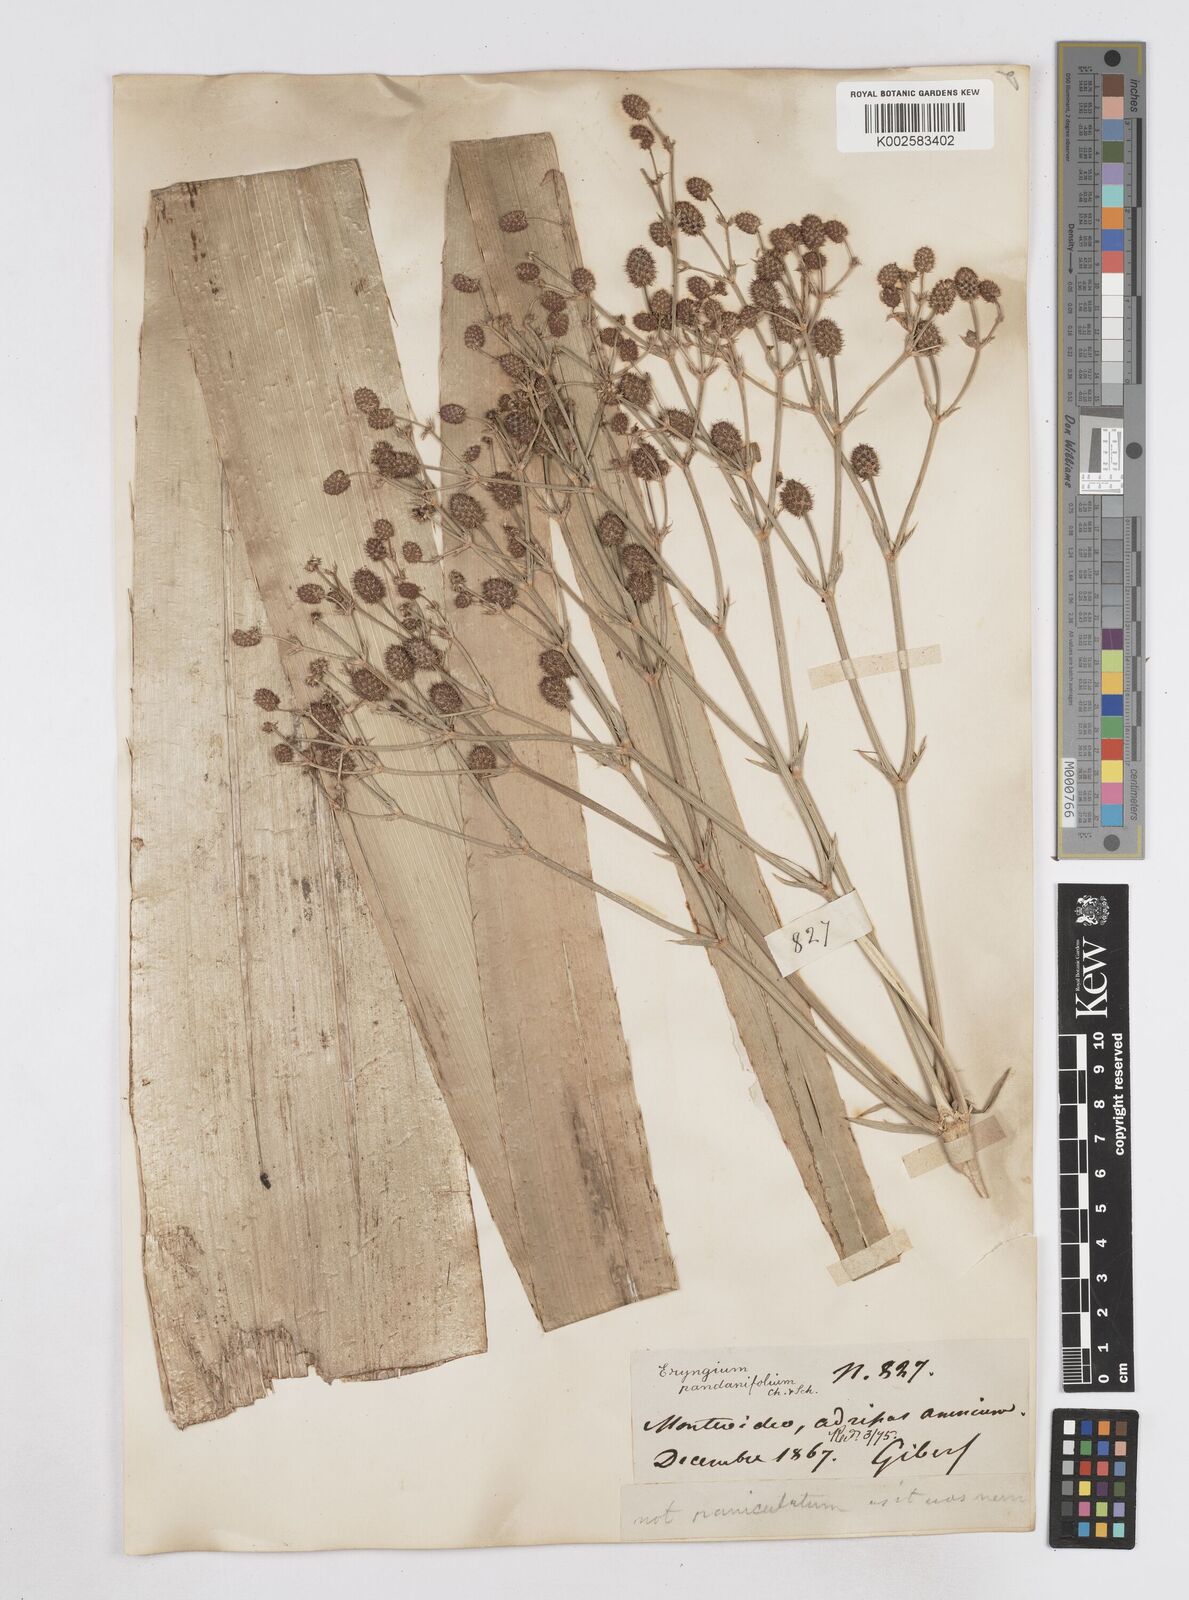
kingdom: Plantae
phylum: Tracheophyta
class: Magnoliopsida
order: Apiales
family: Apiaceae
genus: Eryngium
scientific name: Eryngium pandanifolium
